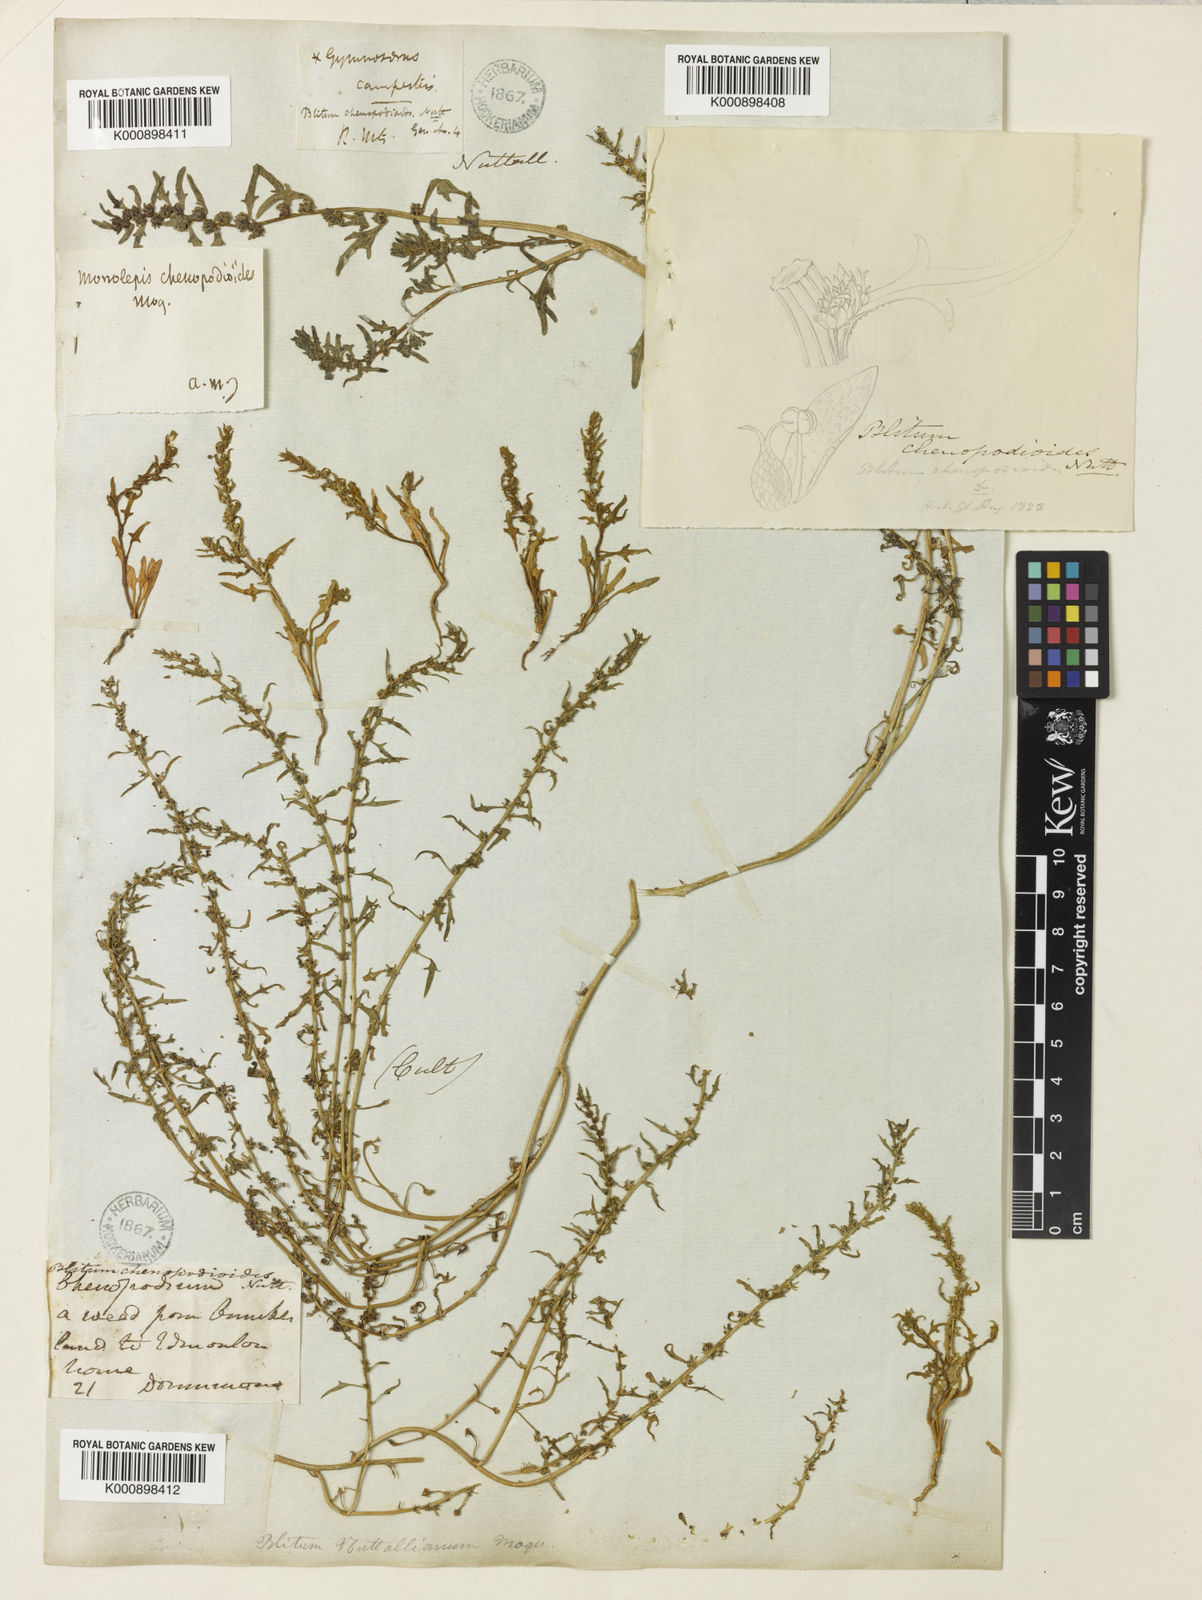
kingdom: Plantae
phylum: Tracheophyta
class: Magnoliopsida
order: Caryophyllales
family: Amaranthaceae
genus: Blitum
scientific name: Blitum nuttallianum
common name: Poverty-weed
